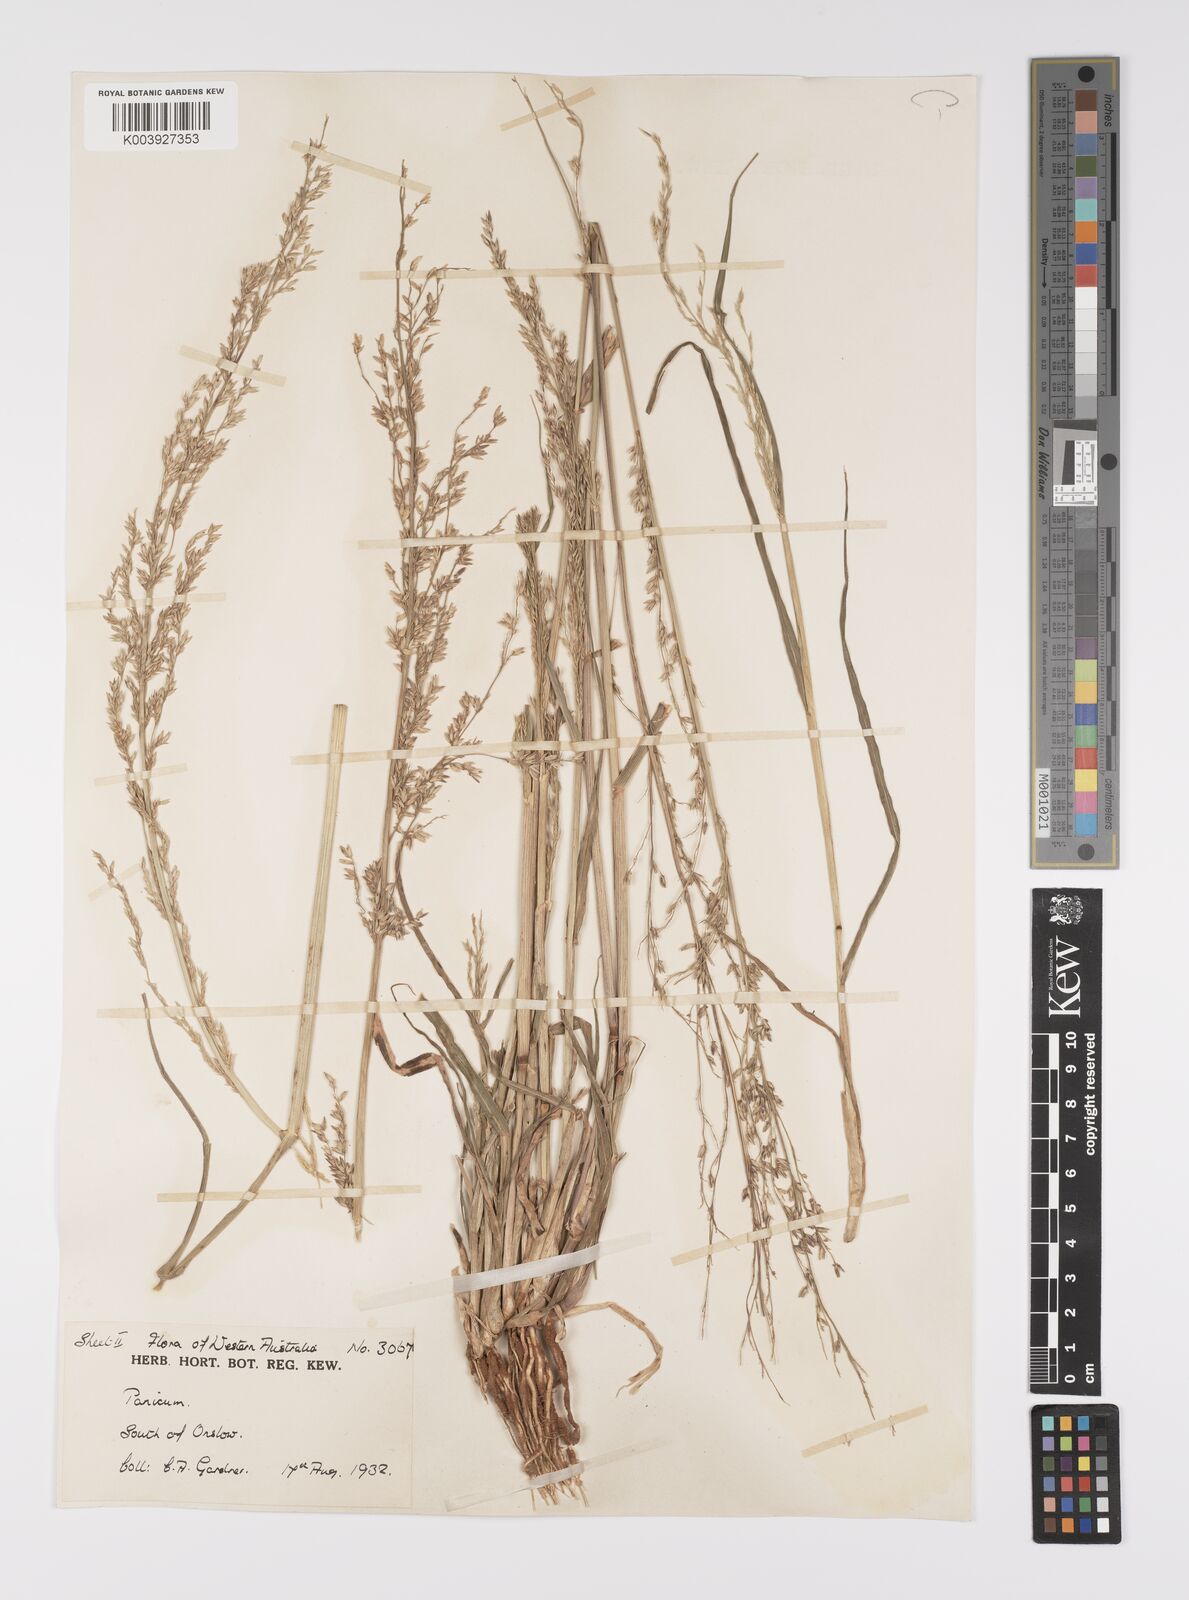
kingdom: Plantae
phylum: Tracheophyta
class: Liliopsida
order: Poales
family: Poaceae
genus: Whiteochloa
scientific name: Whiteochloa cymbiformis
